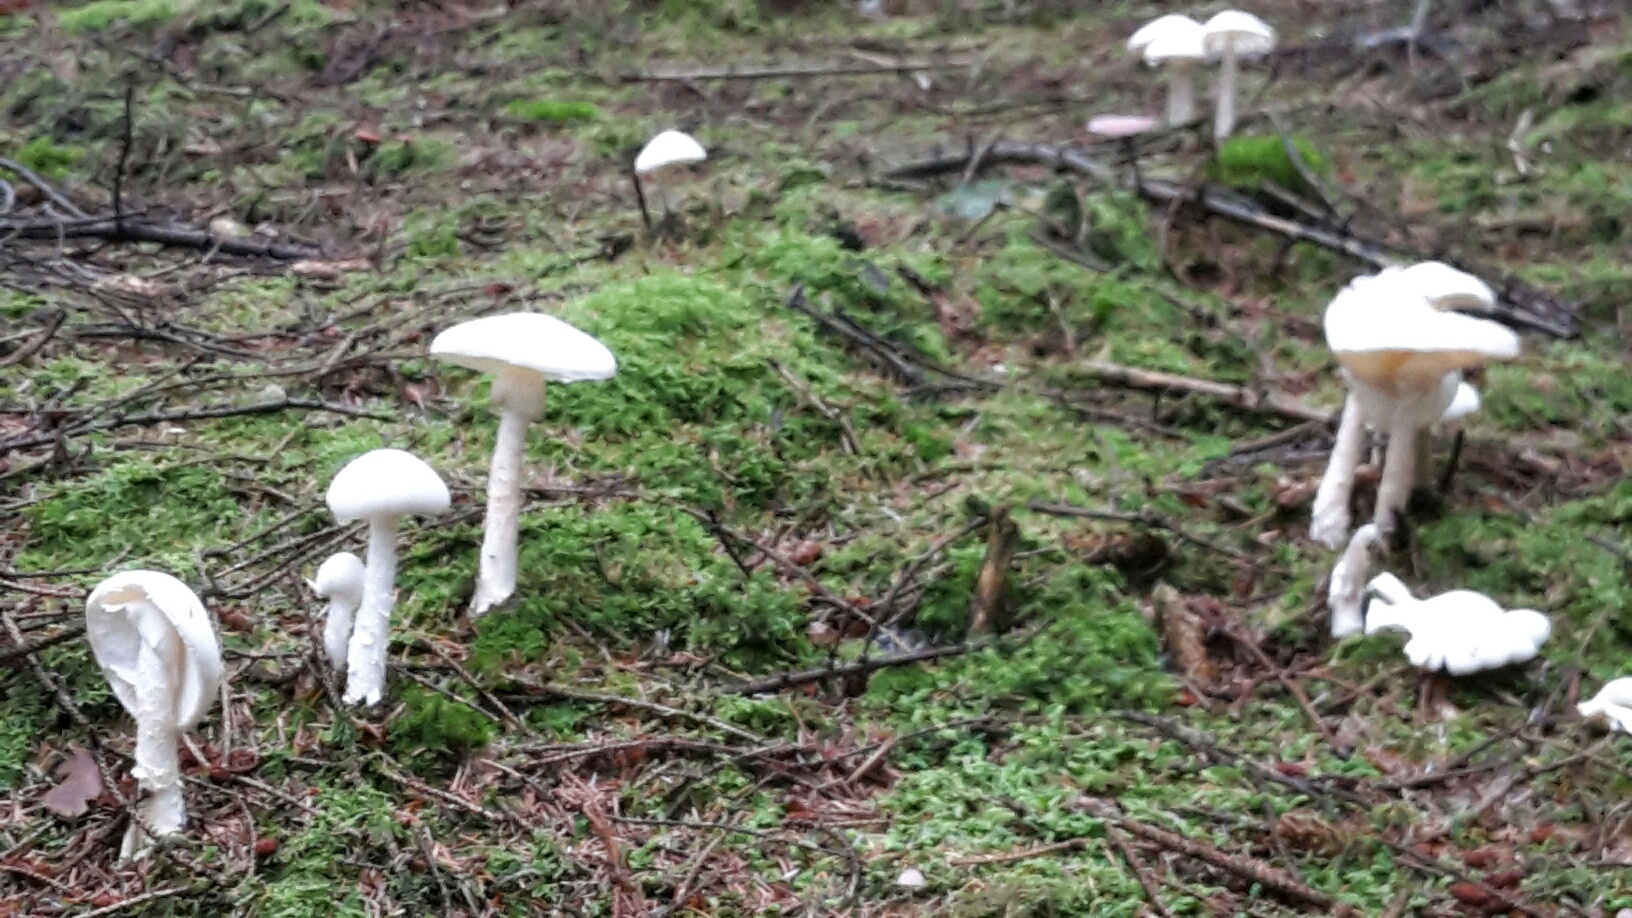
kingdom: Fungi
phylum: Basidiomycota
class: Agaricomycetes
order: Agaricales
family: Amanitaceae
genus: Amanita
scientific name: Amanita virosa
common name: snehvid fluesvamp
